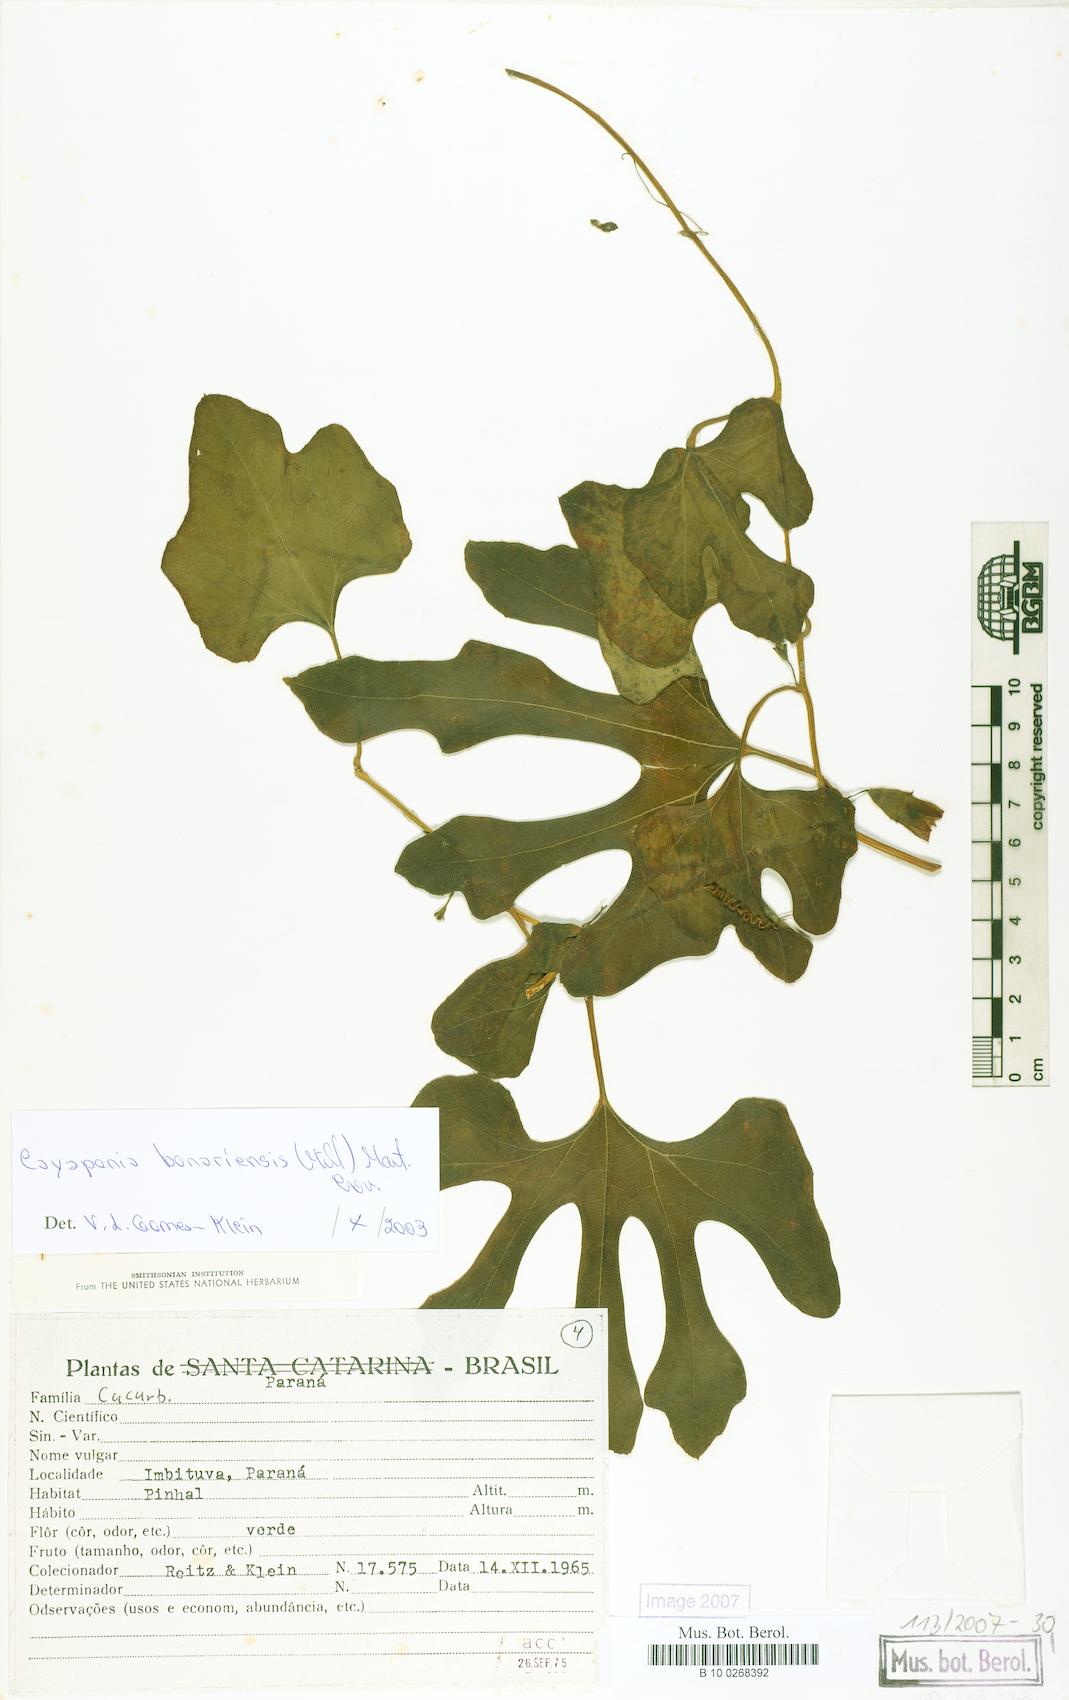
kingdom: Plantae
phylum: Tracheophyta
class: Magnoliopsida
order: Cucurbitales
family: Cucurbitaceae
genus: Cayaponia
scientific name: Cayaponia bonariensis
